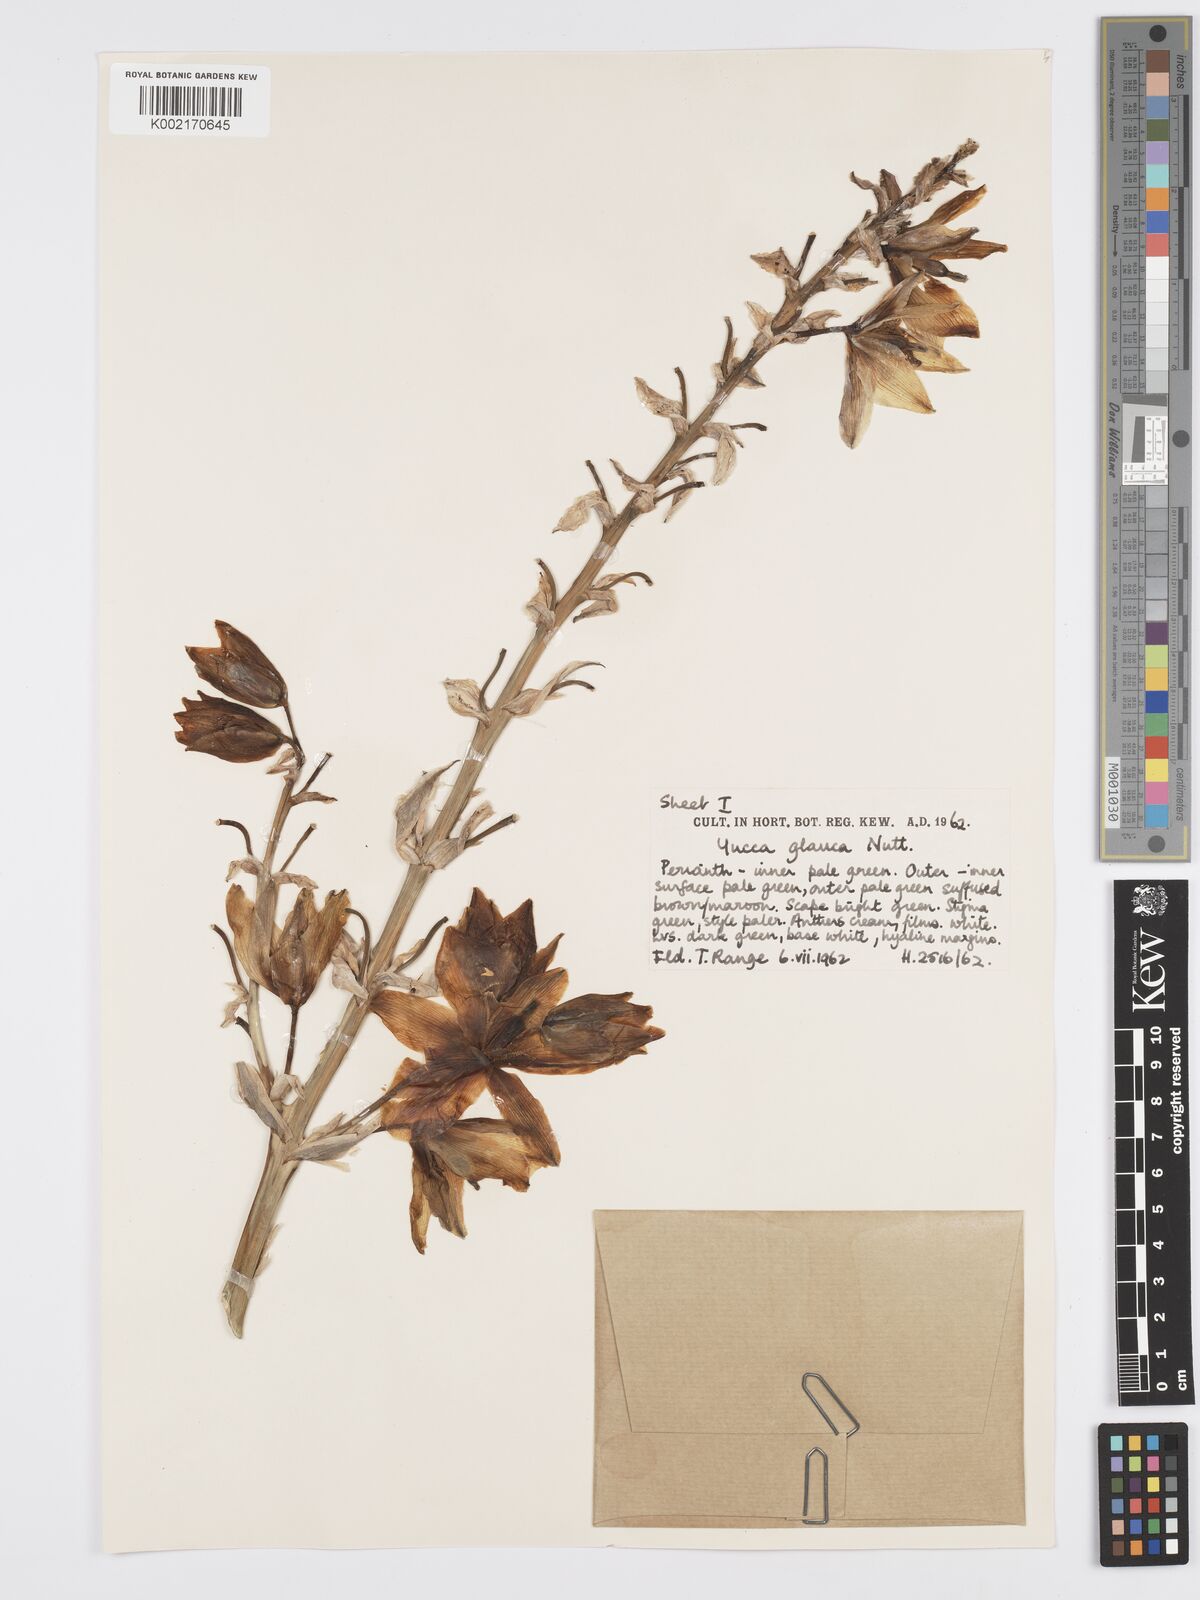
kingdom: Plantae
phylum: Tracheophyta
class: Liliopsida
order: Asparagales
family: Asparagaceae
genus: Yucca
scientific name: Yucca glauca
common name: Great plains yucca
